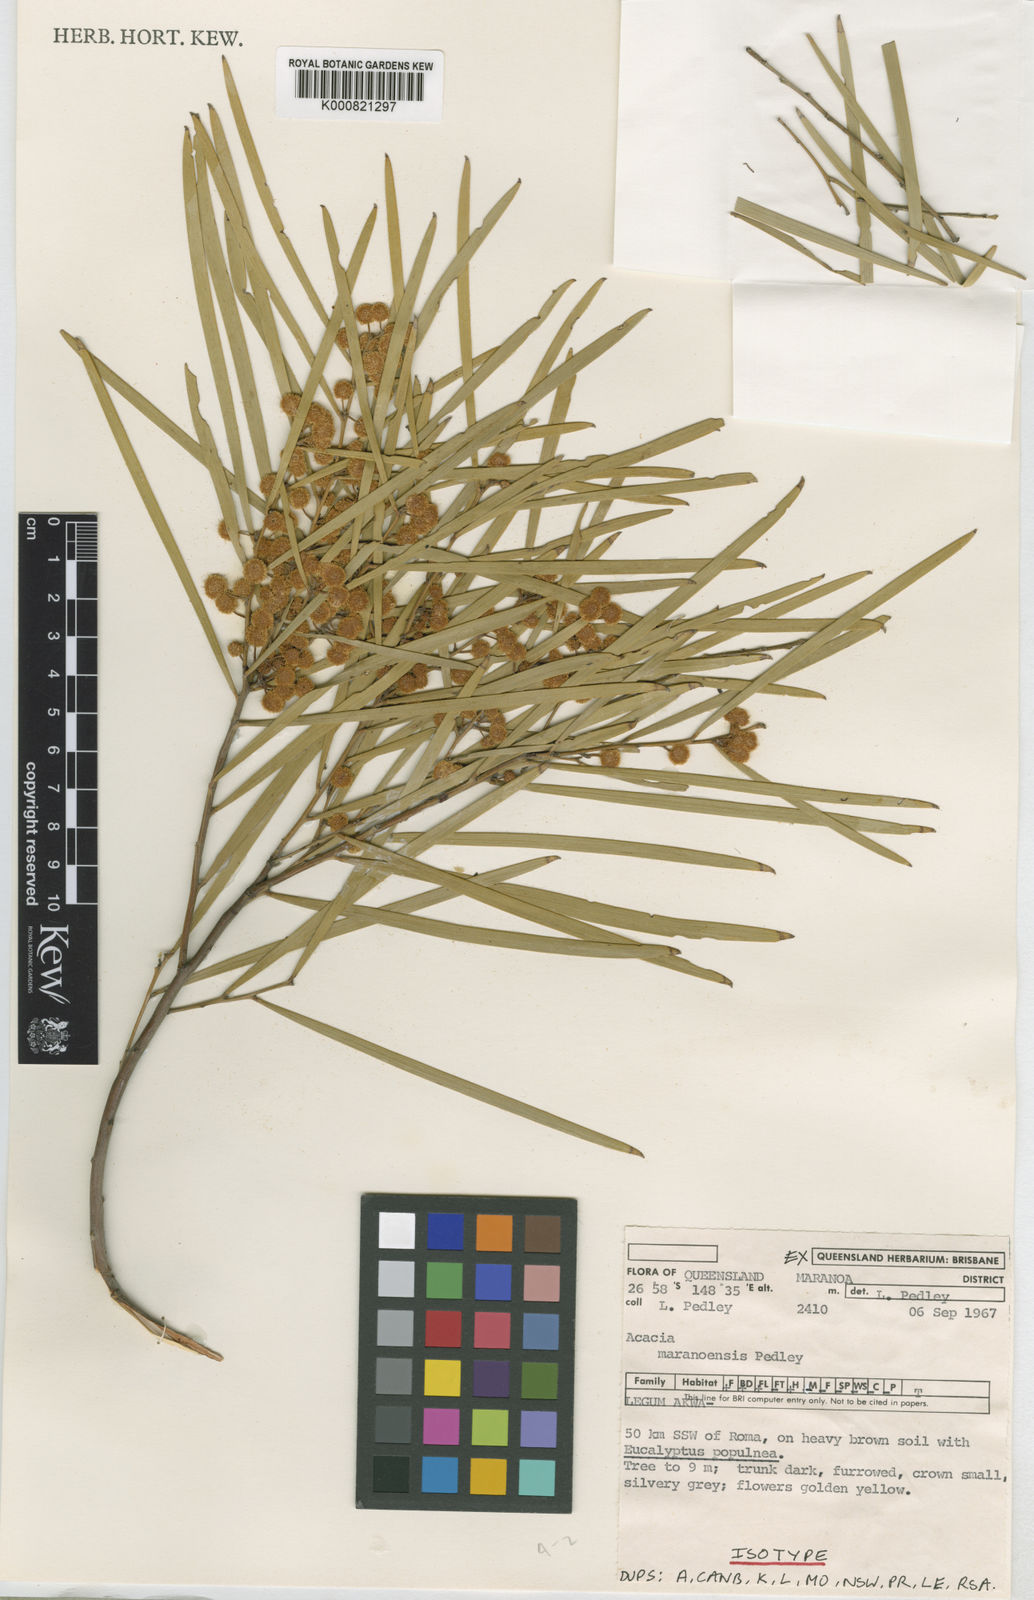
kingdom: Plantae
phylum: Tracheophyta
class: Magnoliopsida
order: Fabales
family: Fabaceae
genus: Acacia
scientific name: Acacia maranoensis
